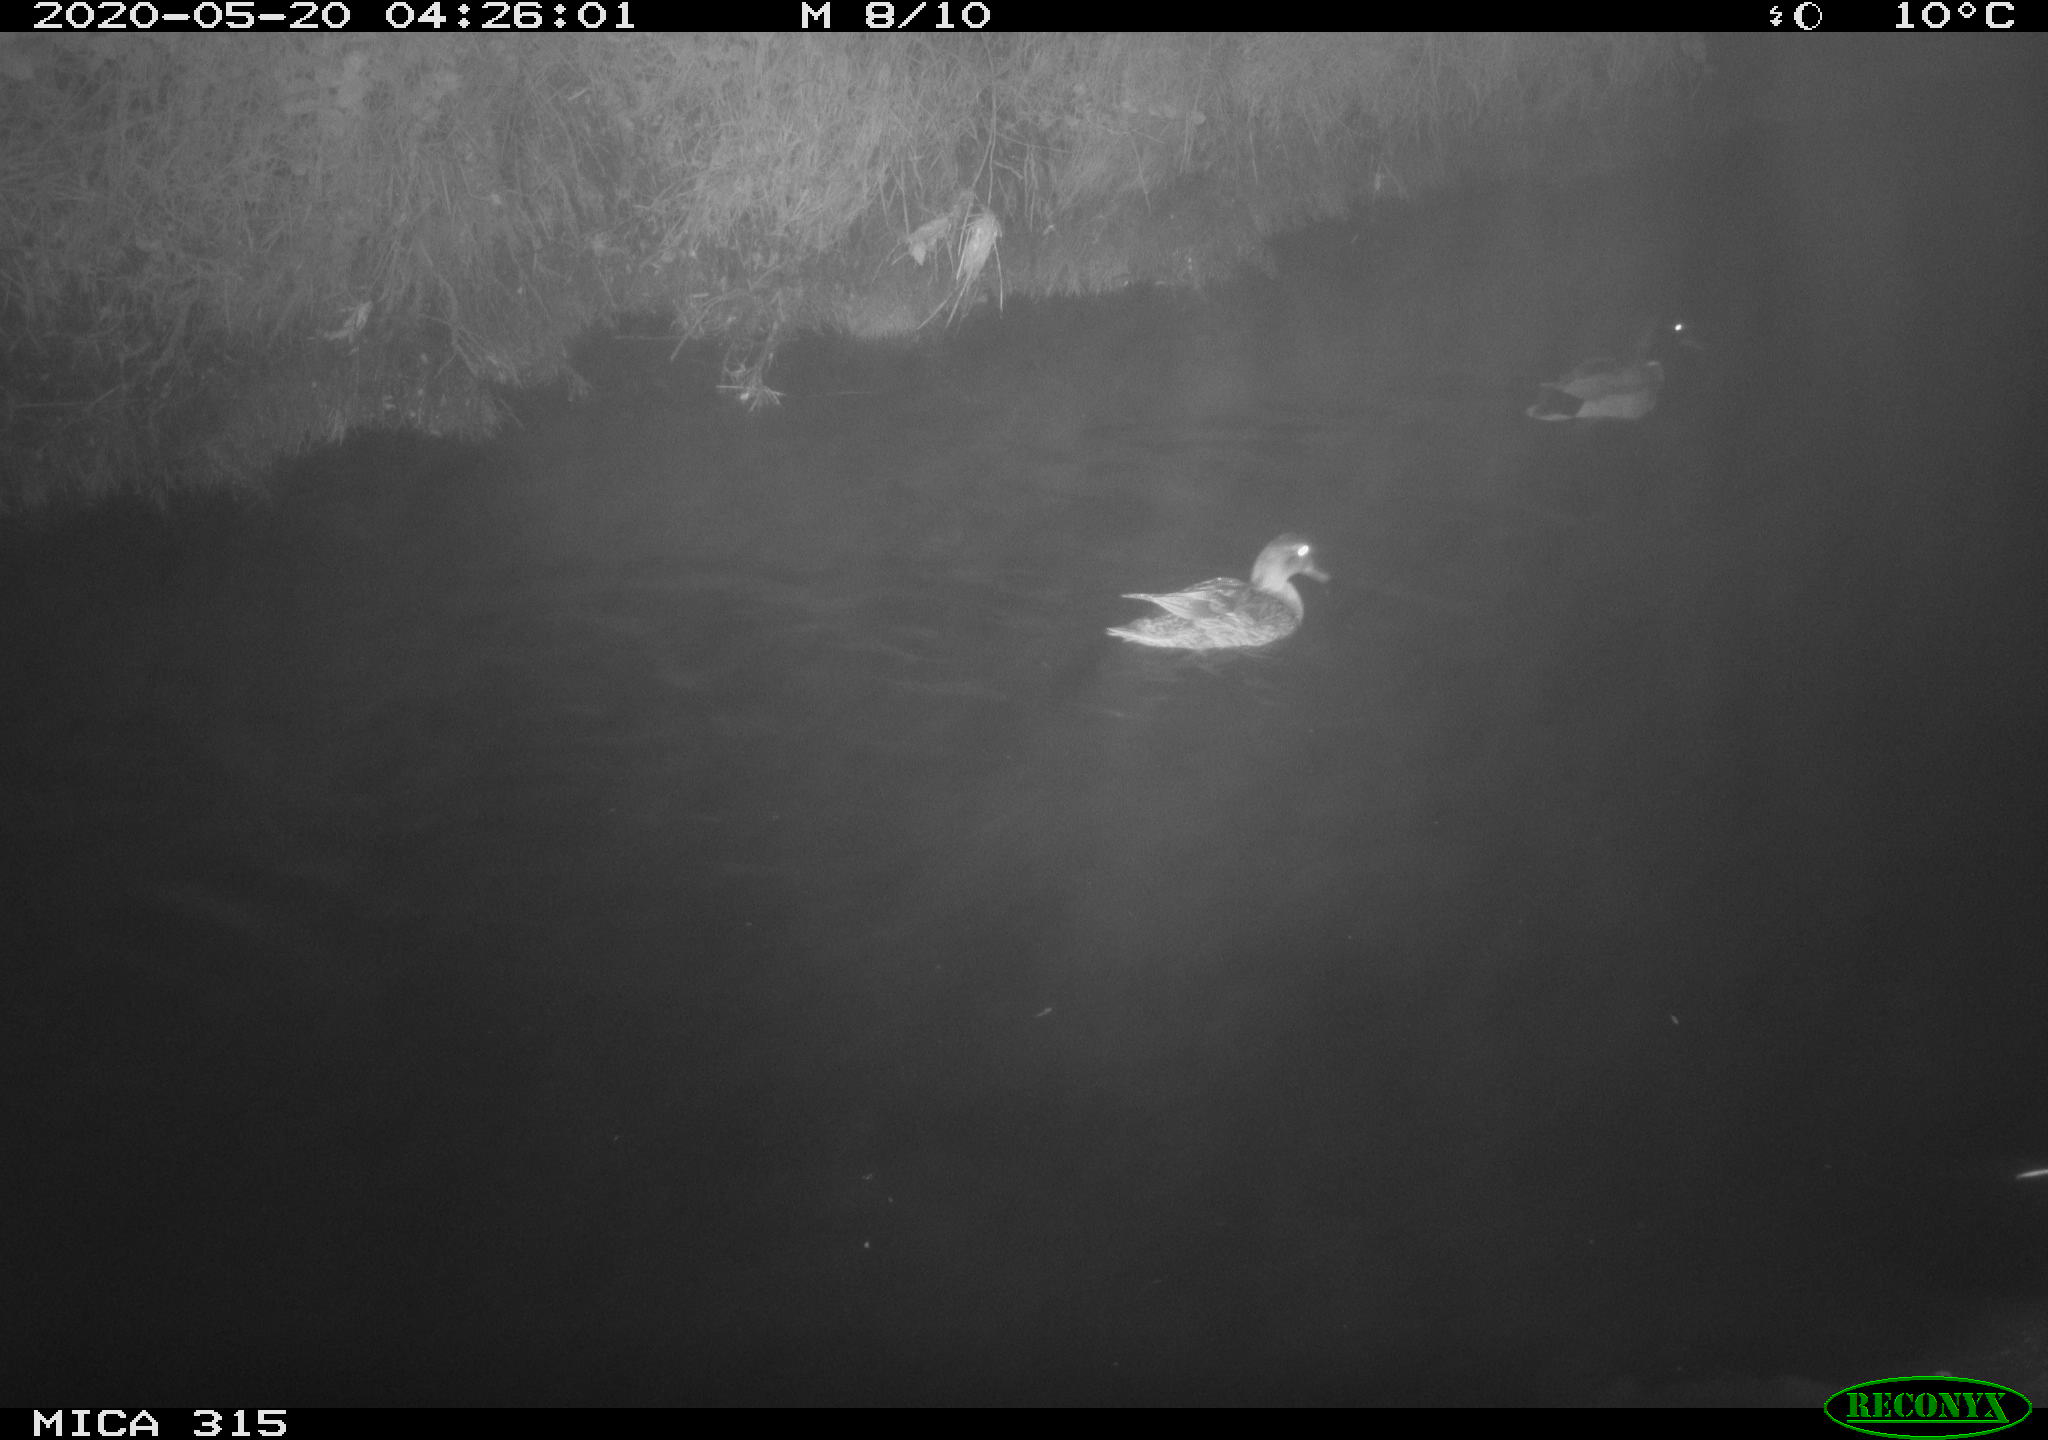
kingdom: Animalia
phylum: Chordata
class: Aves
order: Anseriformes
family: Anatidae
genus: Anas
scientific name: Anas platyrhynchos
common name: Mallard
